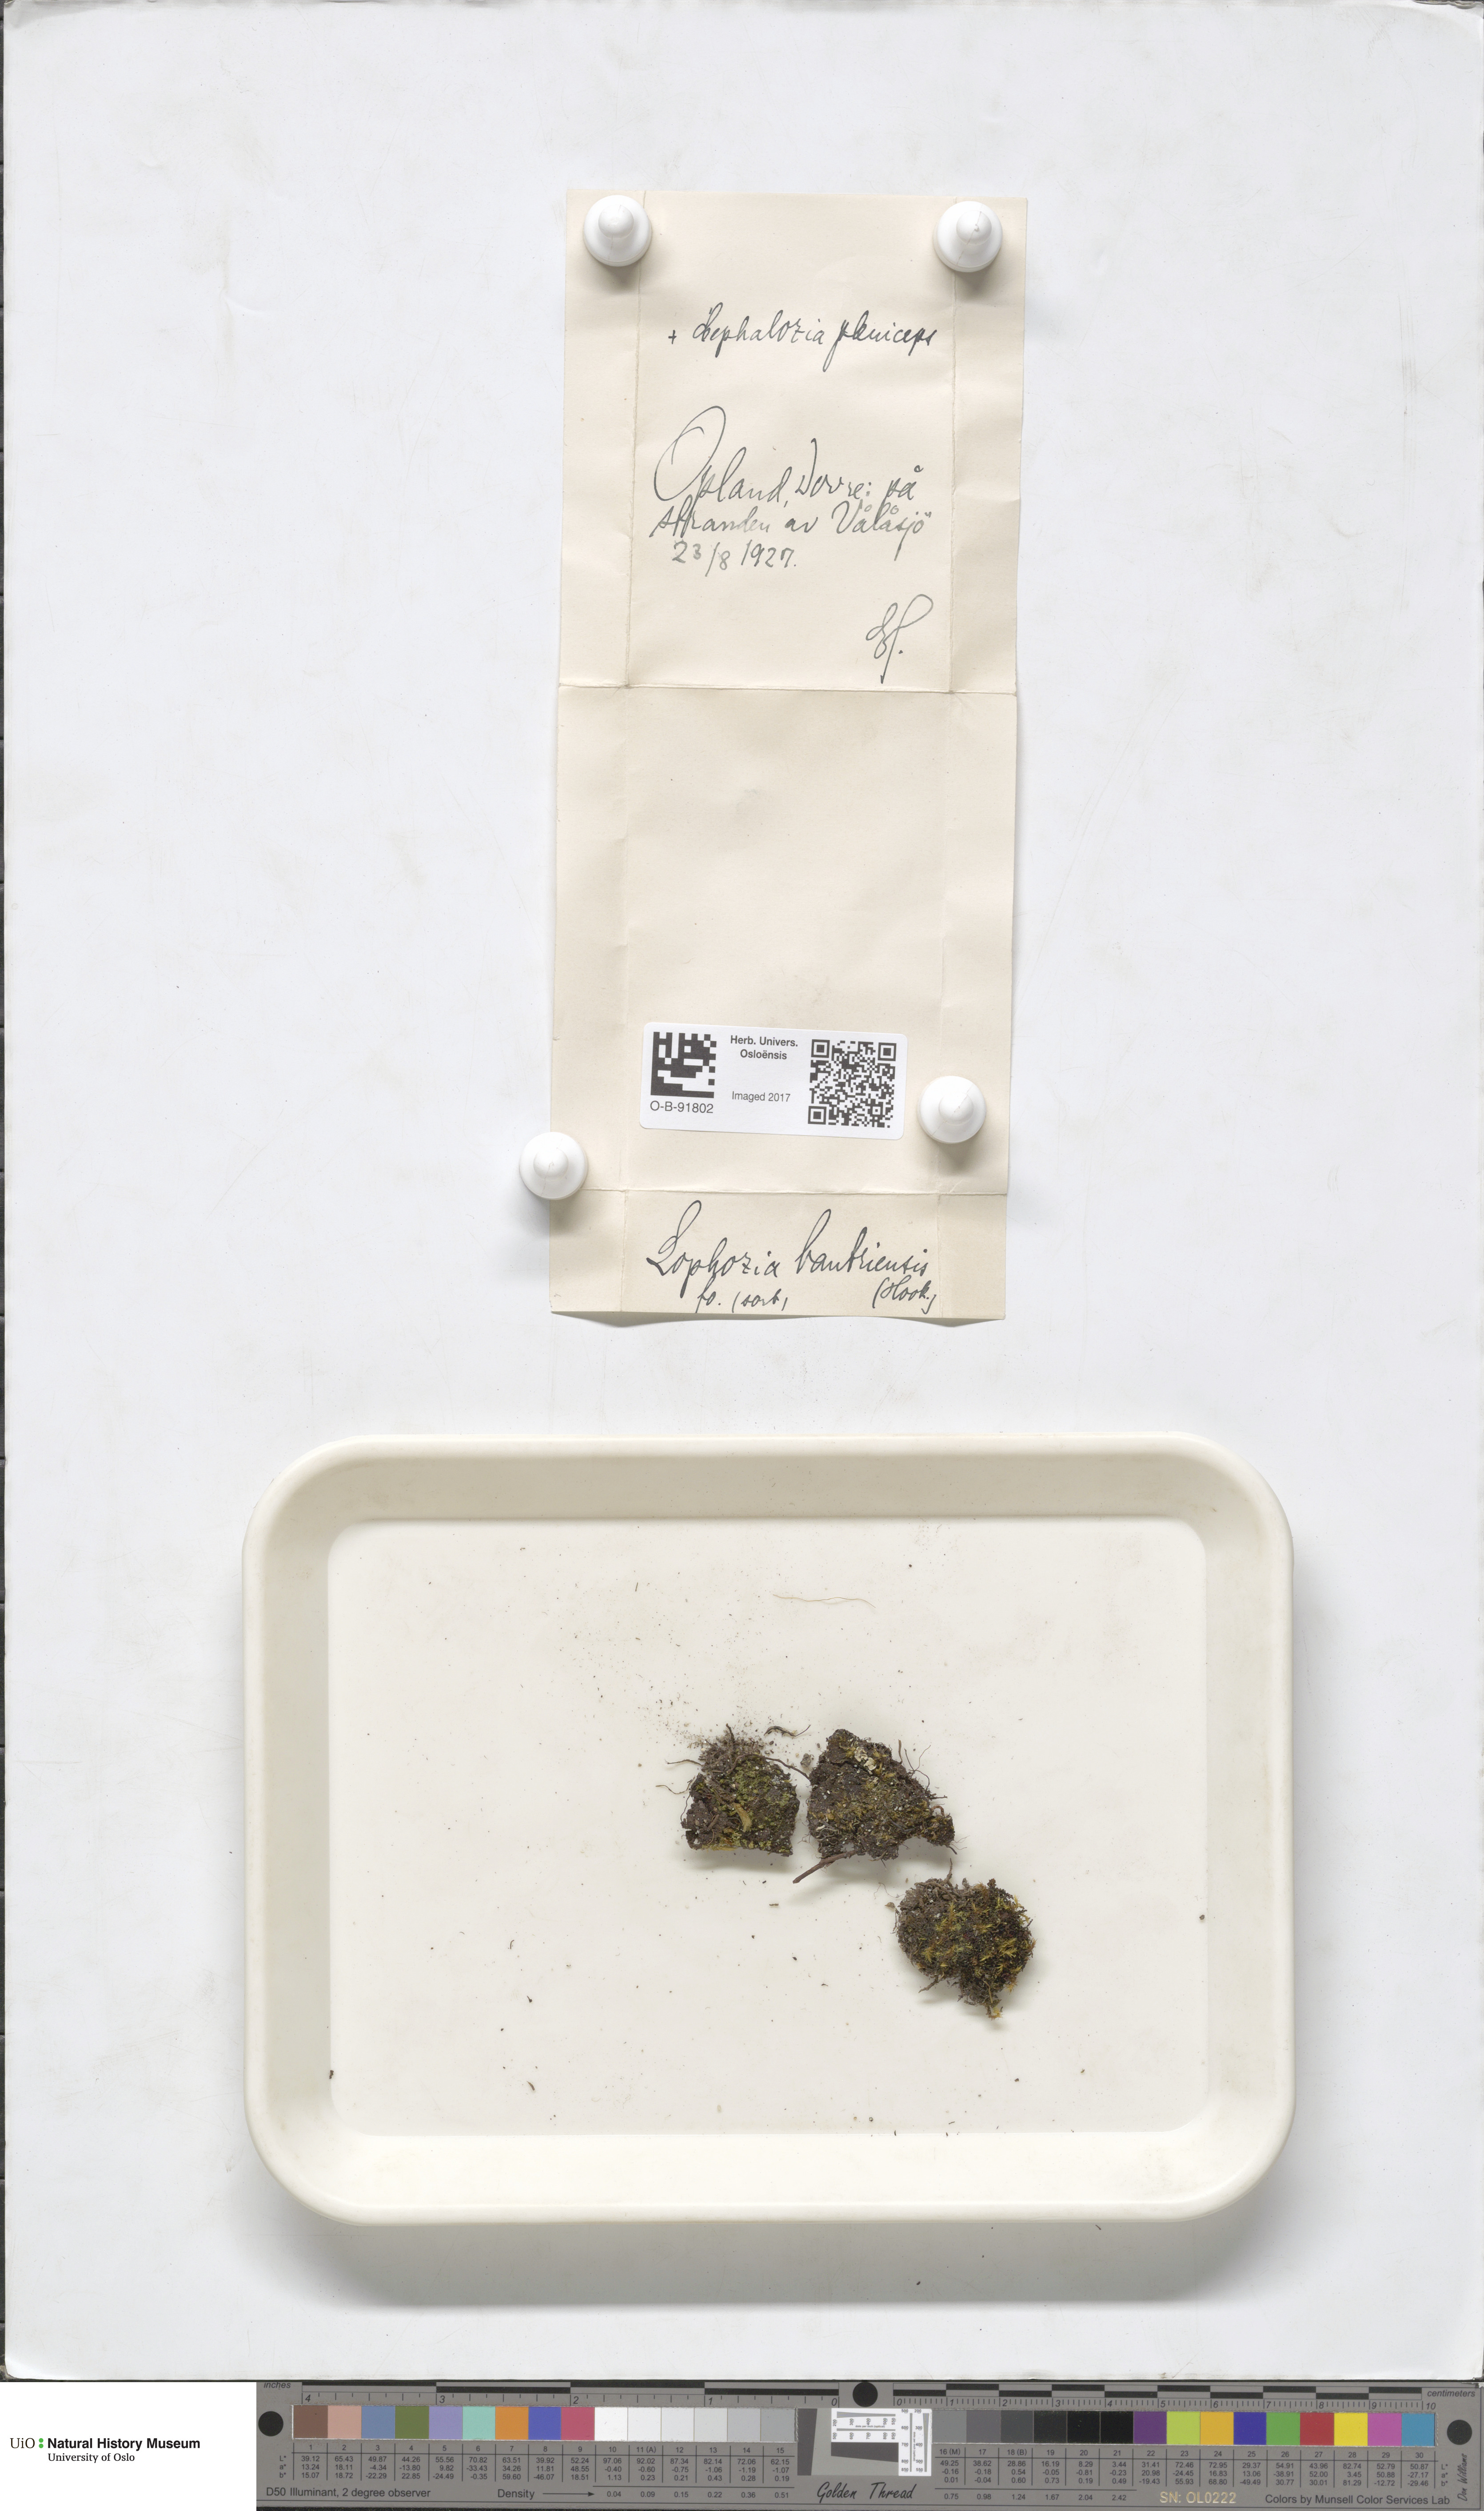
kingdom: Plantae
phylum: Marchantiophyta
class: Jungermanniopsida
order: Jungermanniales
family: Jungermanniaceae
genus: Mesoptychia
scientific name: Mesoptychia bantriensis
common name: Bantry notchwort
